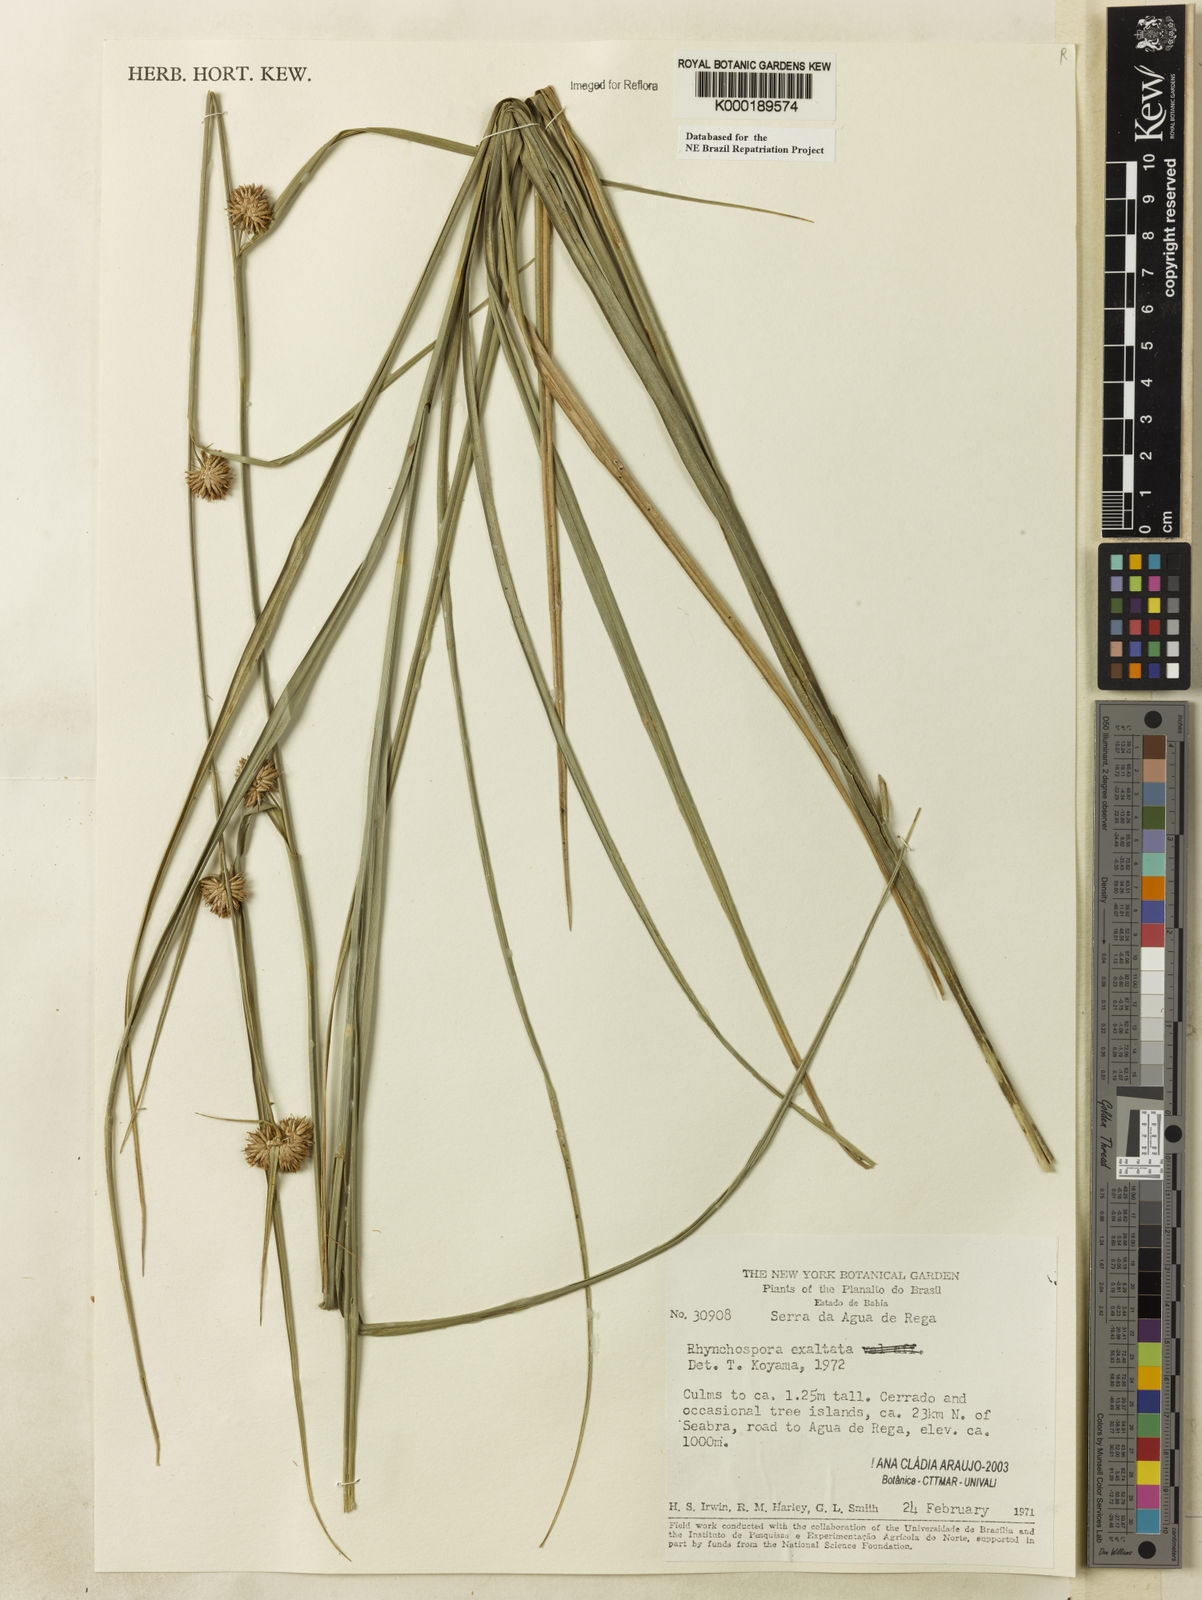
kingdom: Plantae
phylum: Tracheophyta
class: Liliopsida
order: Poales
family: Cyperaceae
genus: Rhynchospora
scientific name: Rhynchospora exaltata
